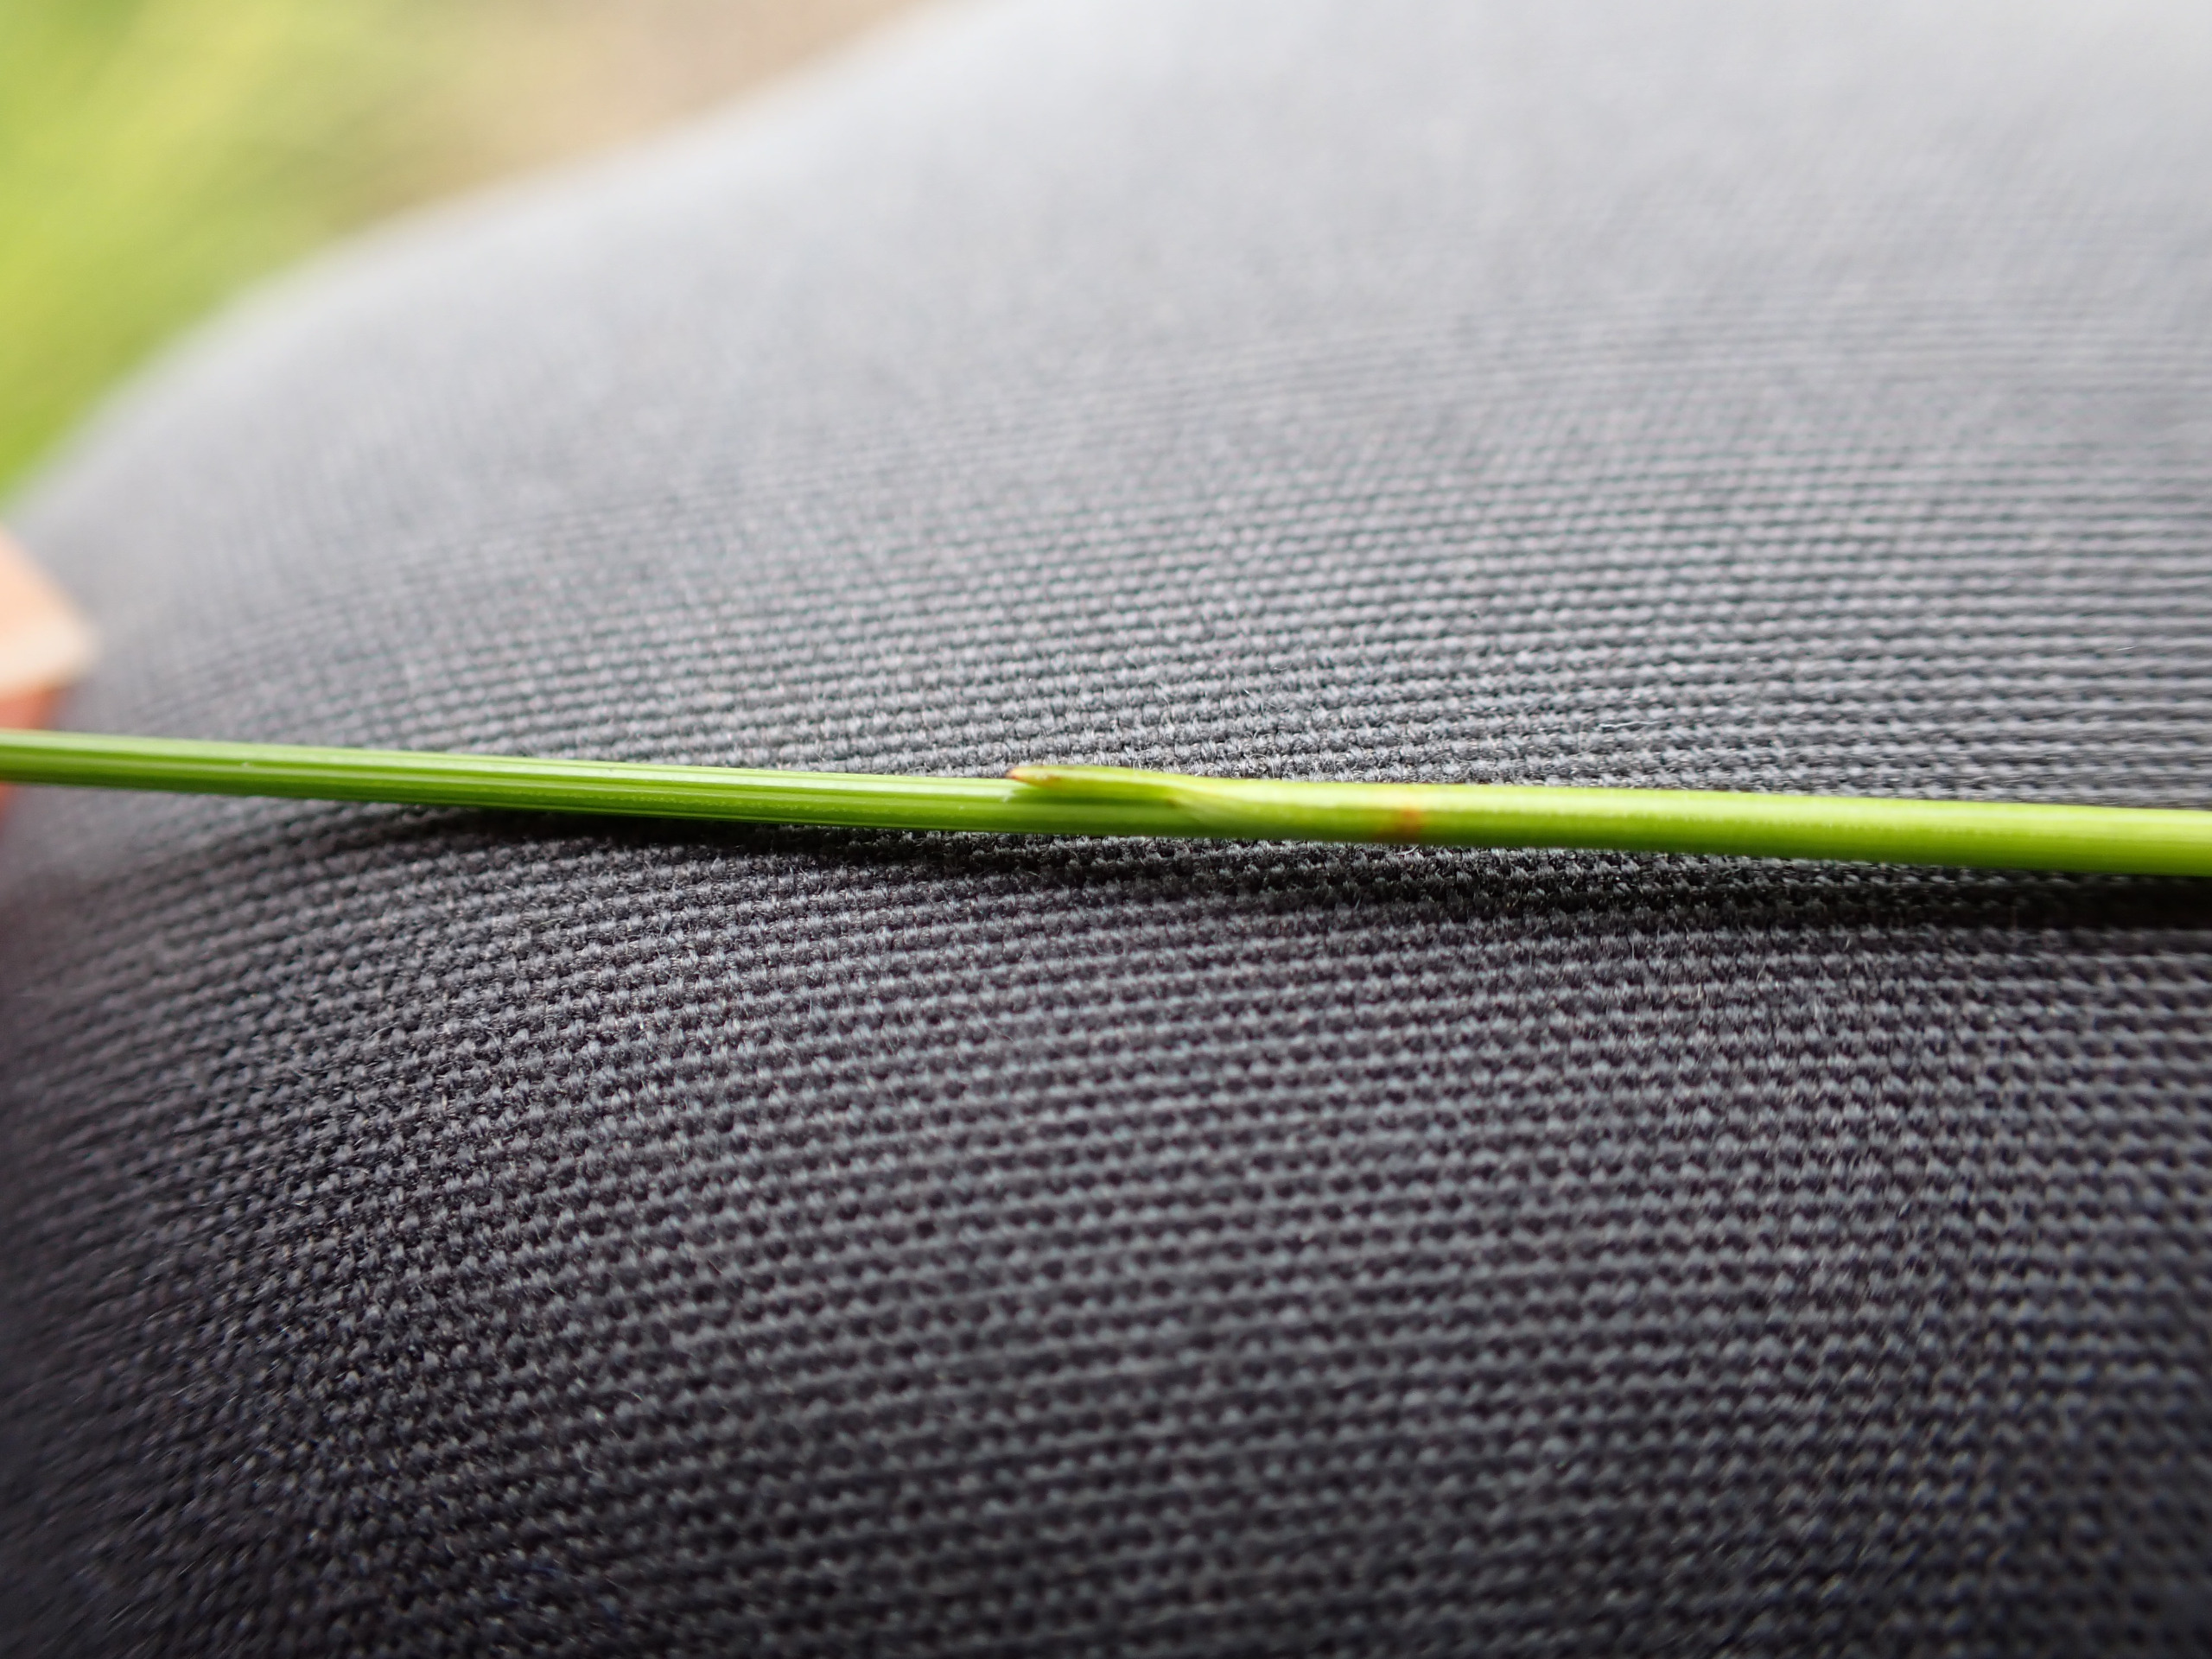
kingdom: Plantae
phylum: Tracheophyta
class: Liliopsida
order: Poales
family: Cyperaceae
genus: Trichophorum
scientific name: Trichophorum cespitosum
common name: Tuekogleaks
